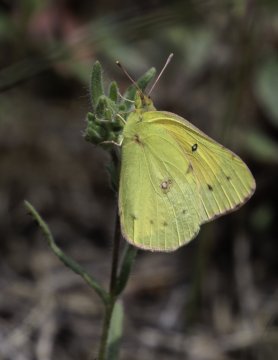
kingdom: Animalia
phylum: Arthropoda
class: Insecta
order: Lepidoptera
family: Pieridae
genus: Colias
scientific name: Colias eurytheme
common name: Orange Sulphur
